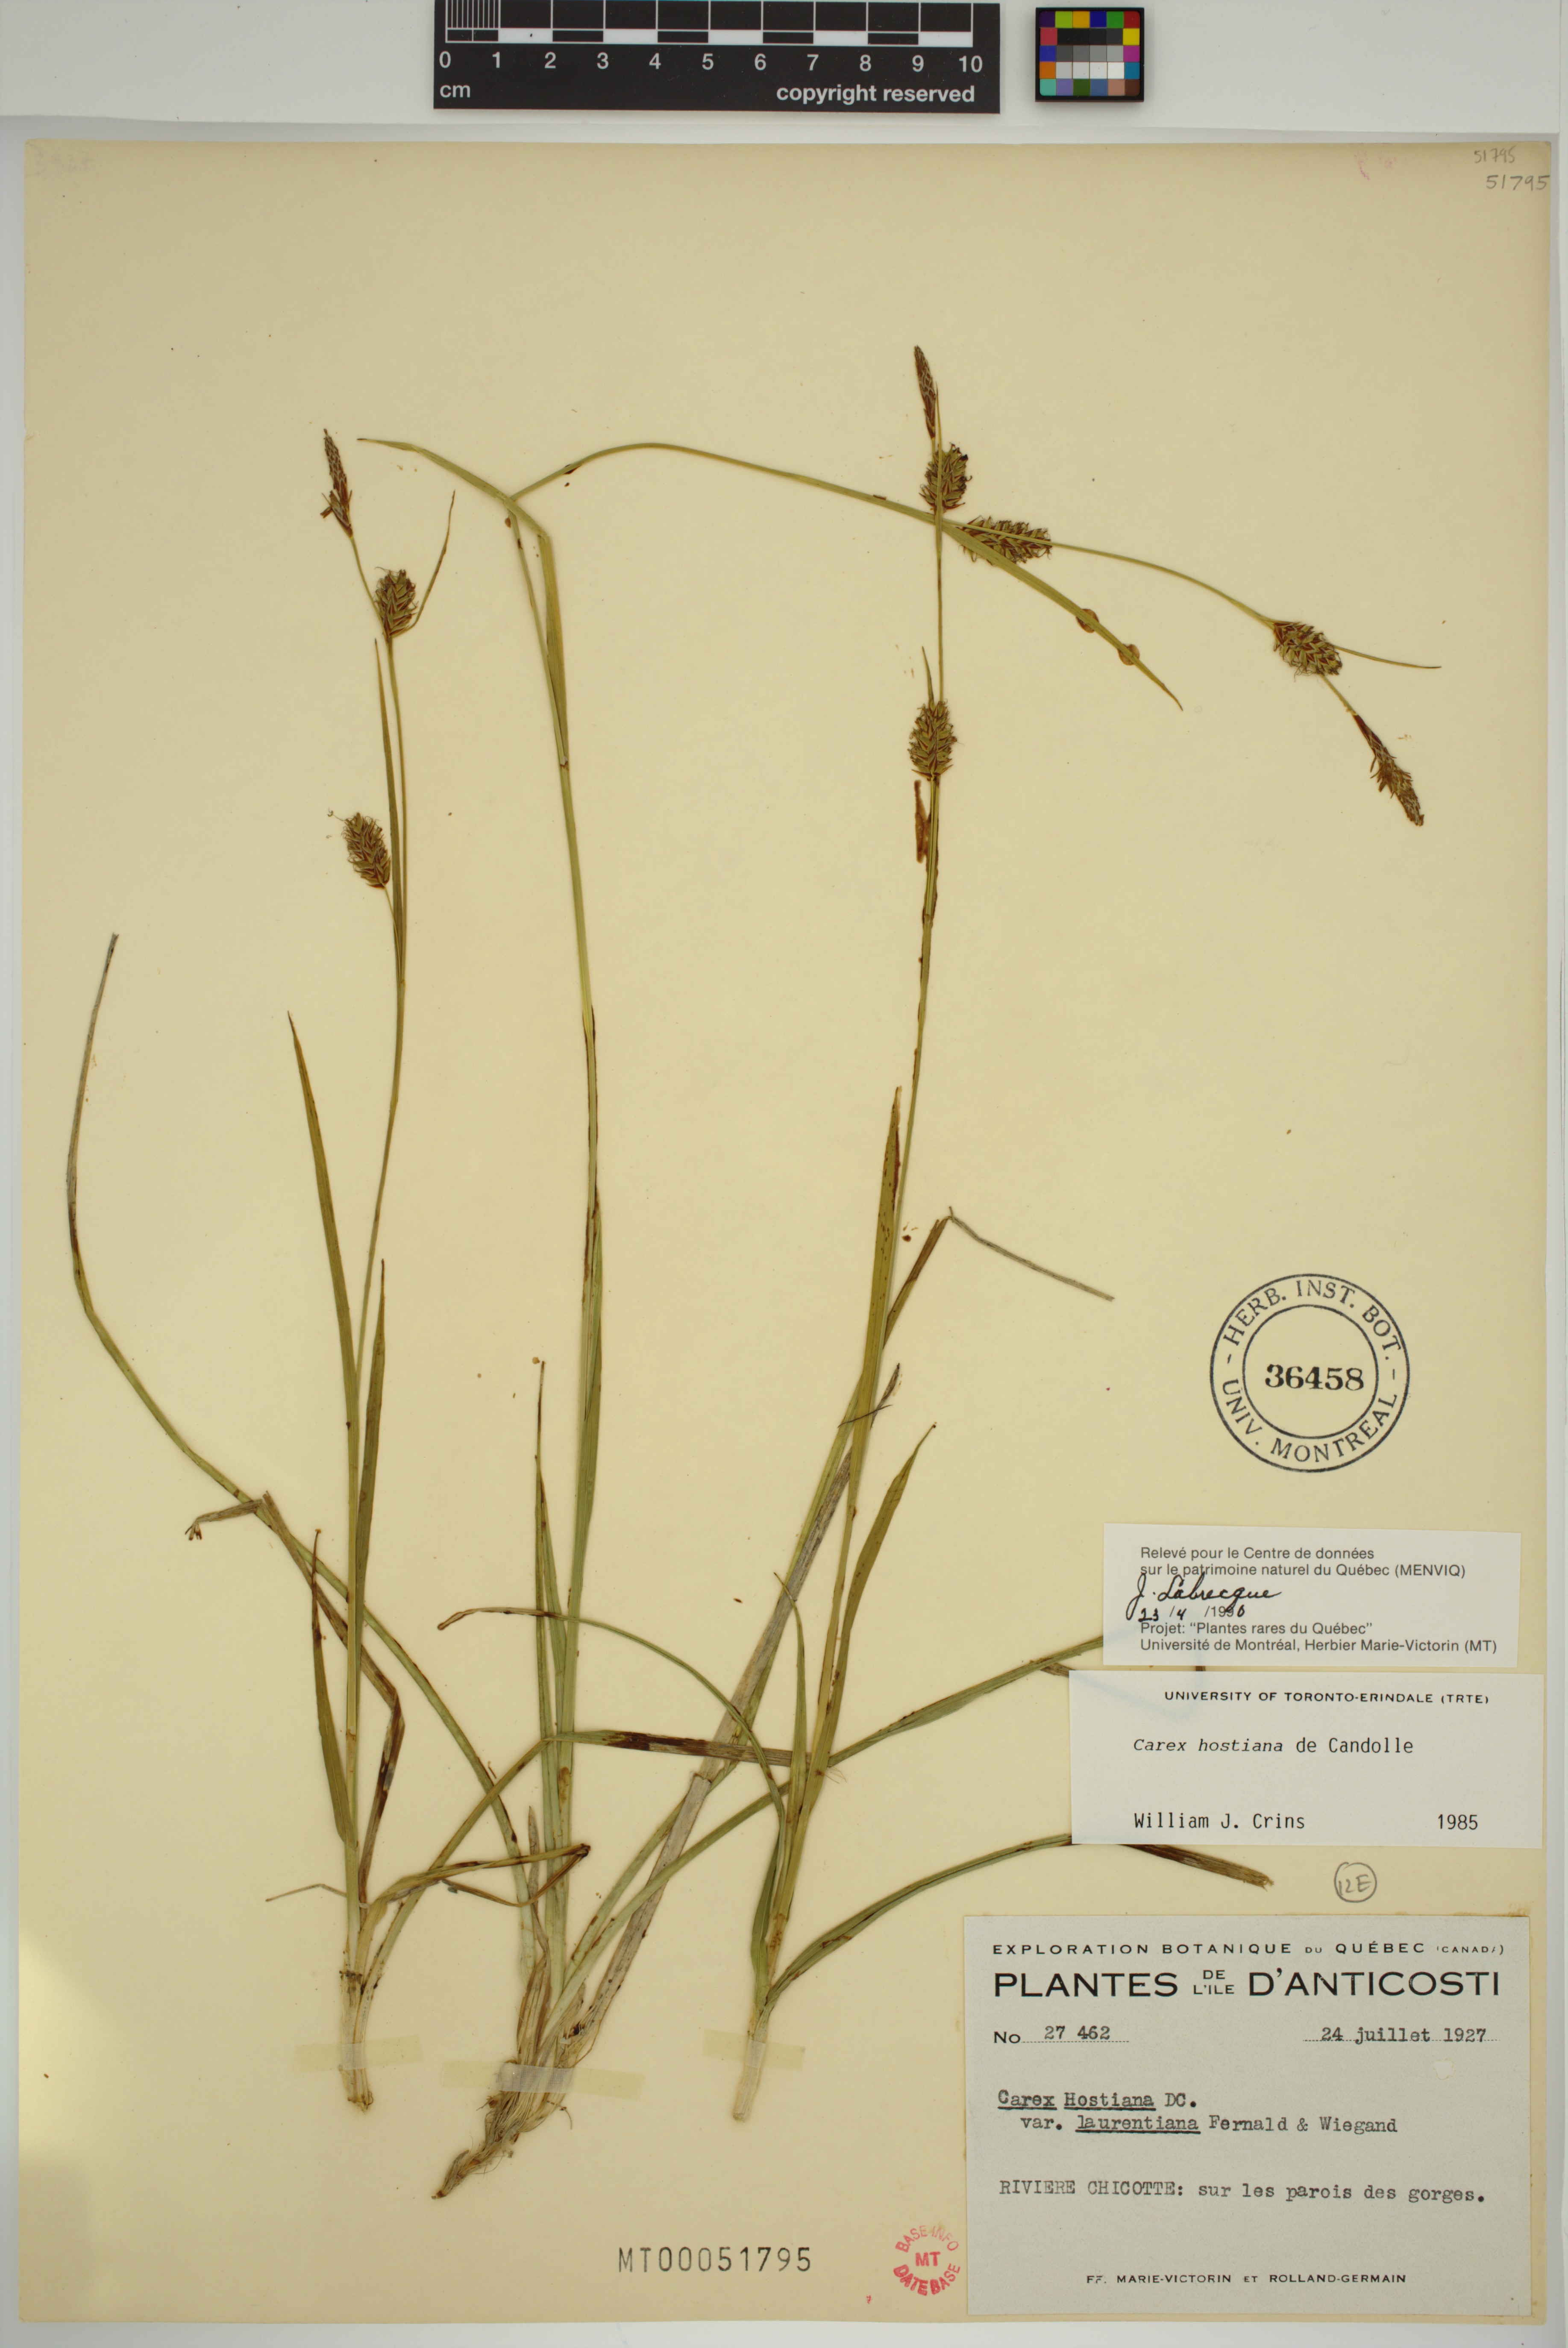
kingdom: Plantae
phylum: Tracheophyta
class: Liliopsida
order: Poales
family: Cyperaceae
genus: Carex
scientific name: Carex hostiana
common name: Tawny sedge
